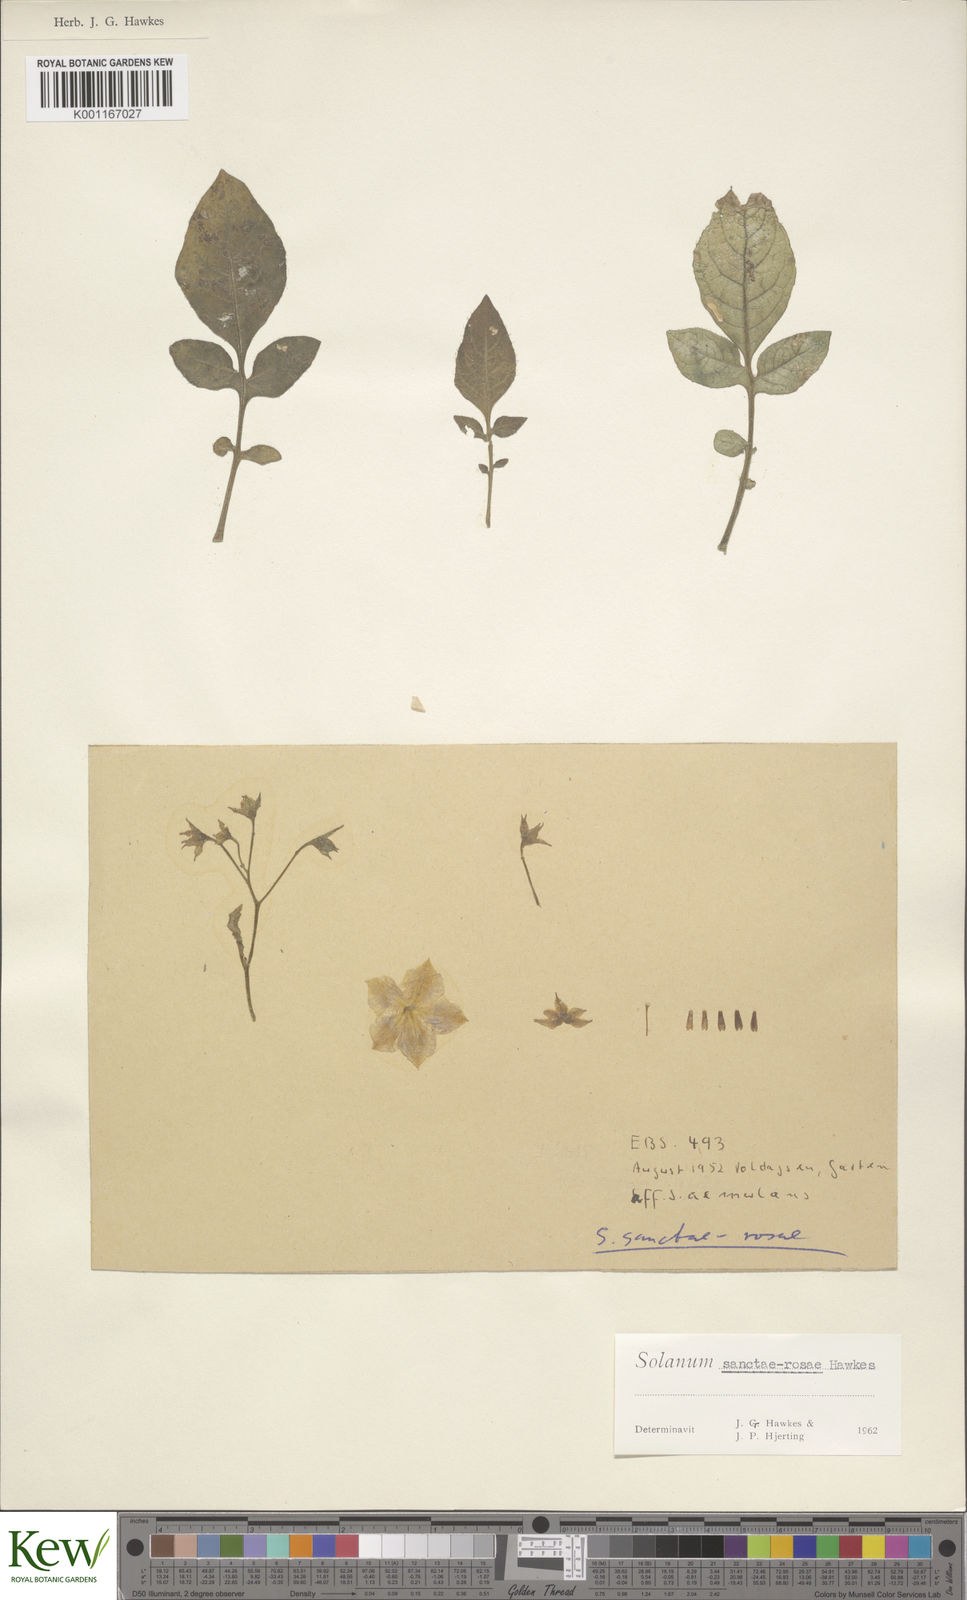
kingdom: Plantae
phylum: Tracheophyta
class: Magnoliopsida
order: Solanales
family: Solanaceae
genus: Solanum
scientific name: Solanum boliviense
